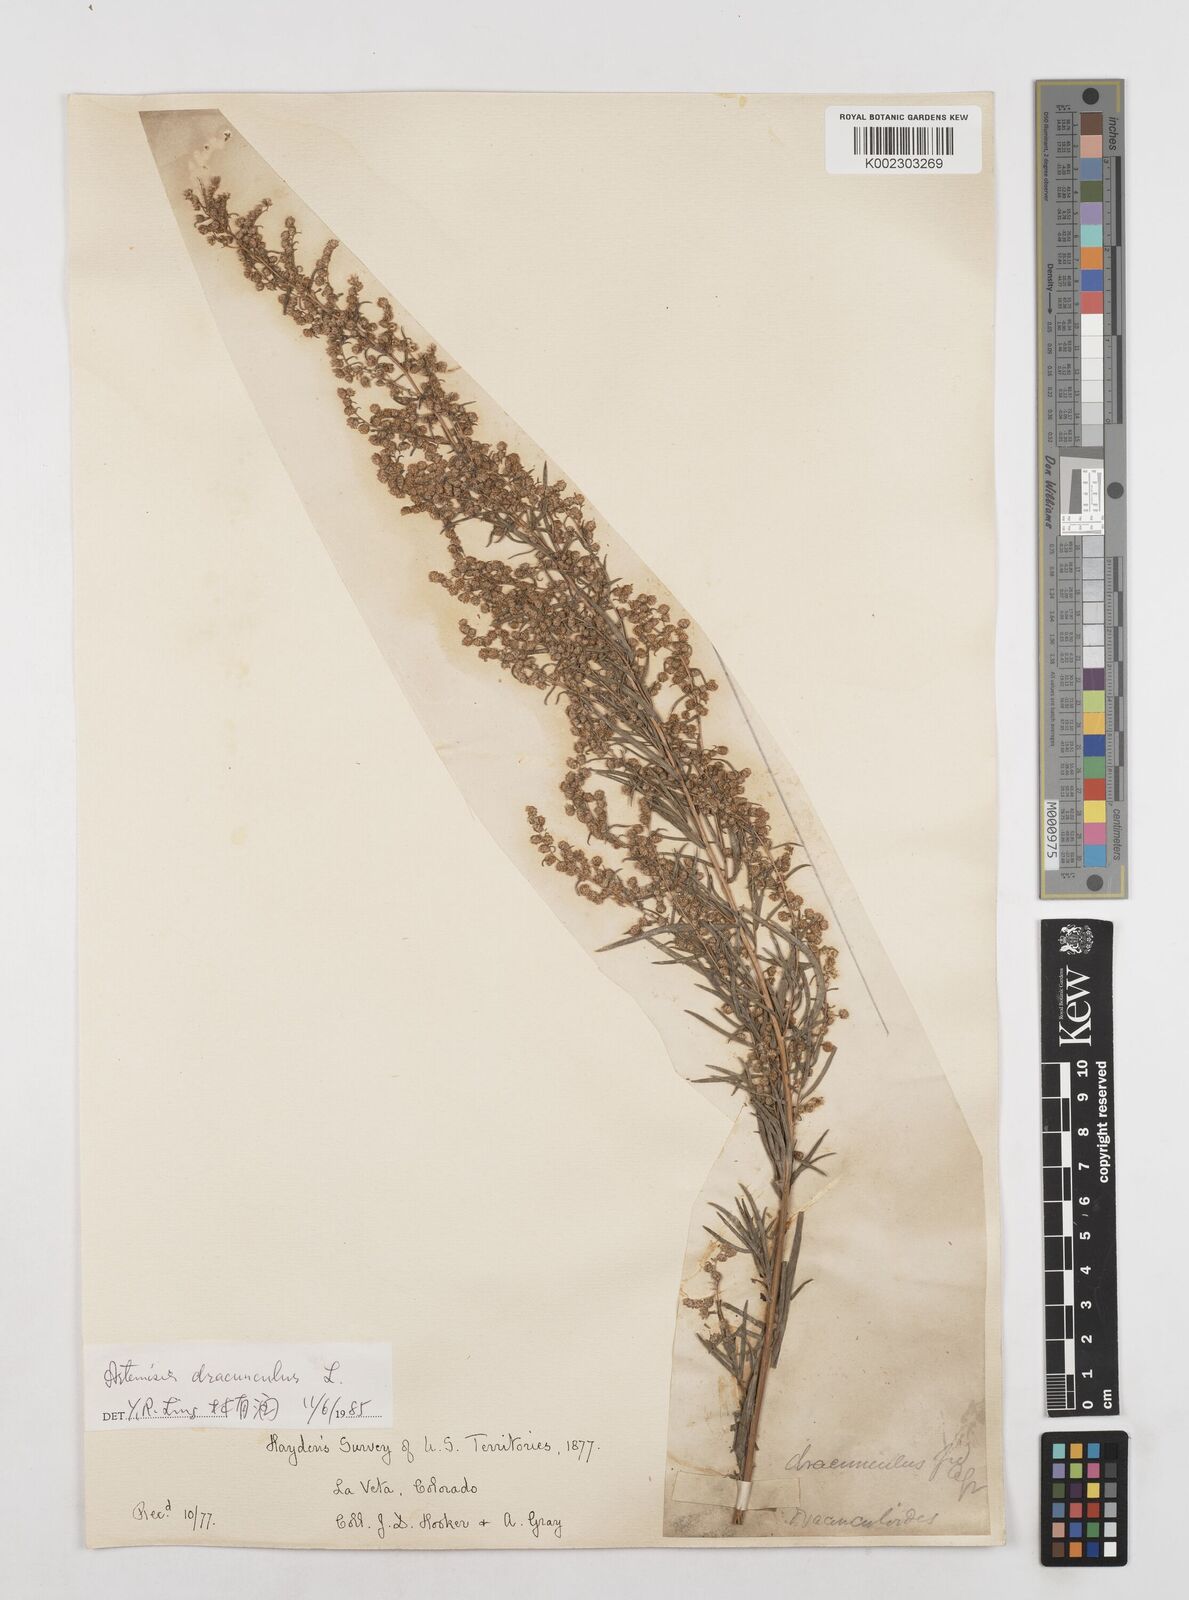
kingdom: Plantae
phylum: Tracheophyta
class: Magnoliopsida
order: Asterales
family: Asteraceae
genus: Artemisia
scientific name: Artemisia dracunculus
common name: Tarragon
